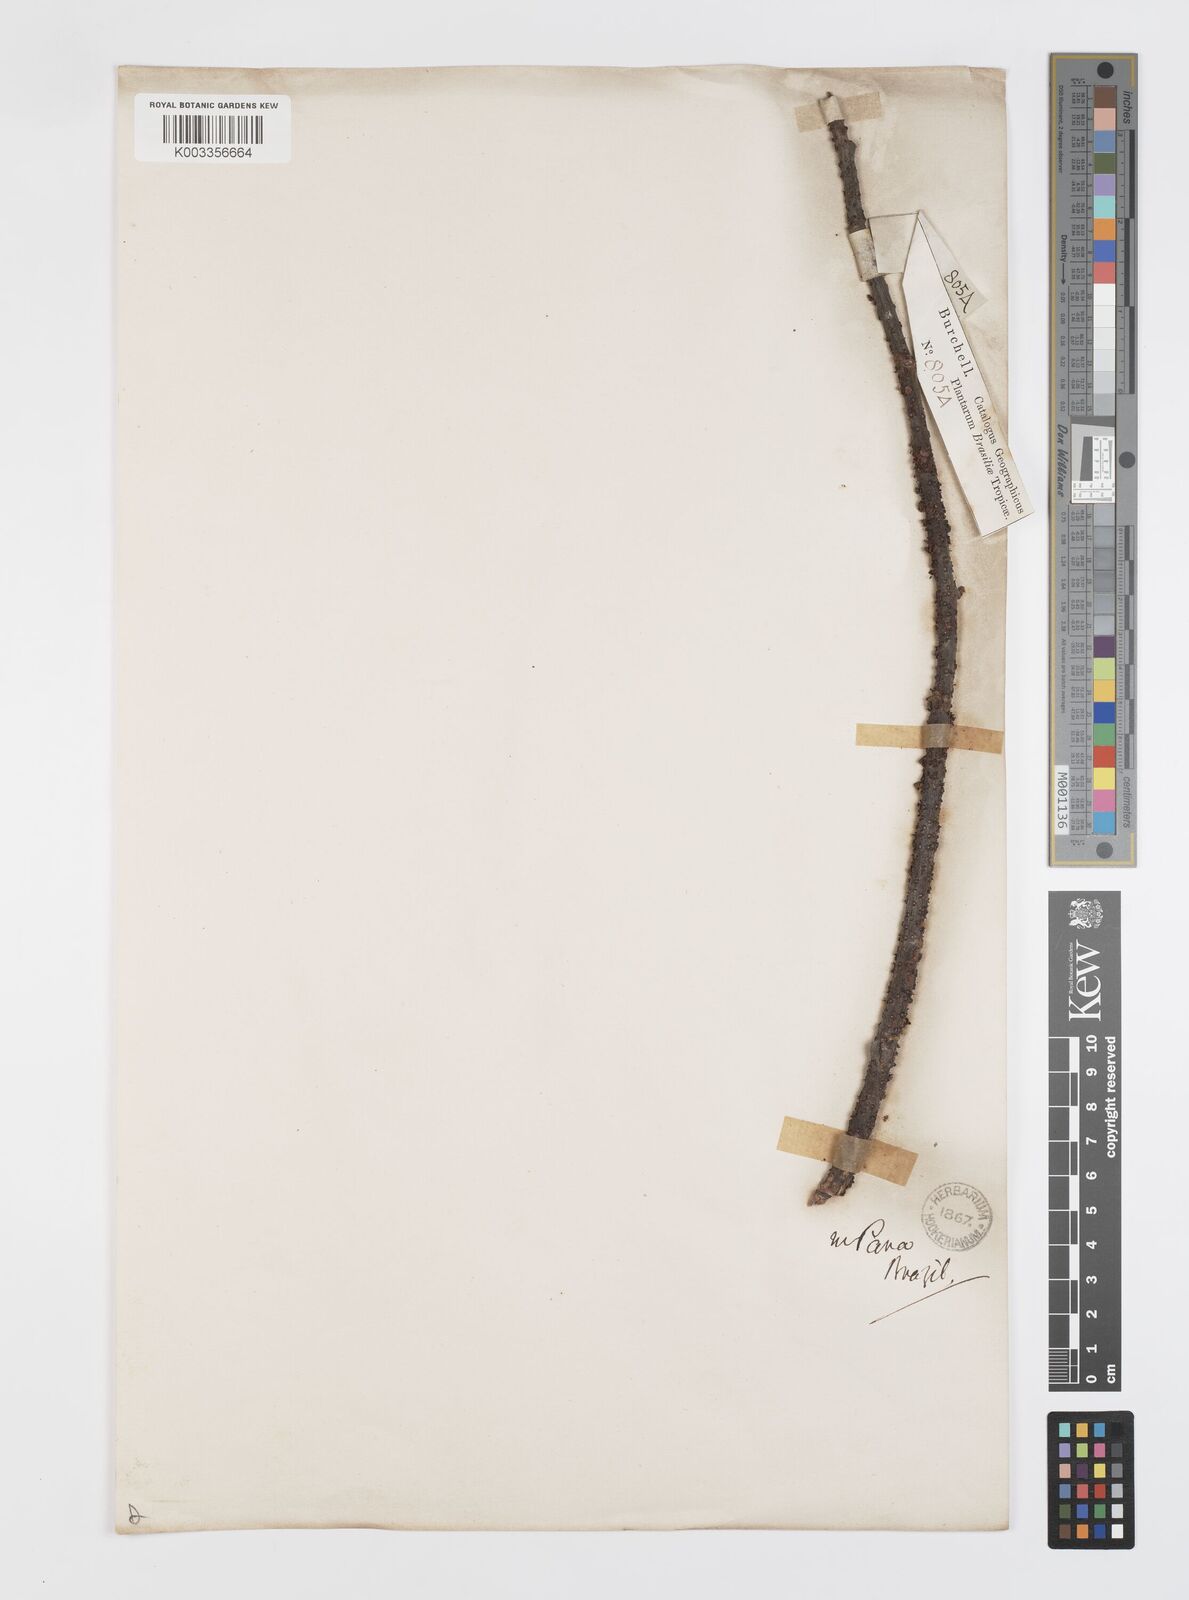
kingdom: Plantae
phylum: Tracheophyta
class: Magnoliopsida
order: Cucurbitales
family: Apodanthaceae
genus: Pilostyles
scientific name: Pilostyles
